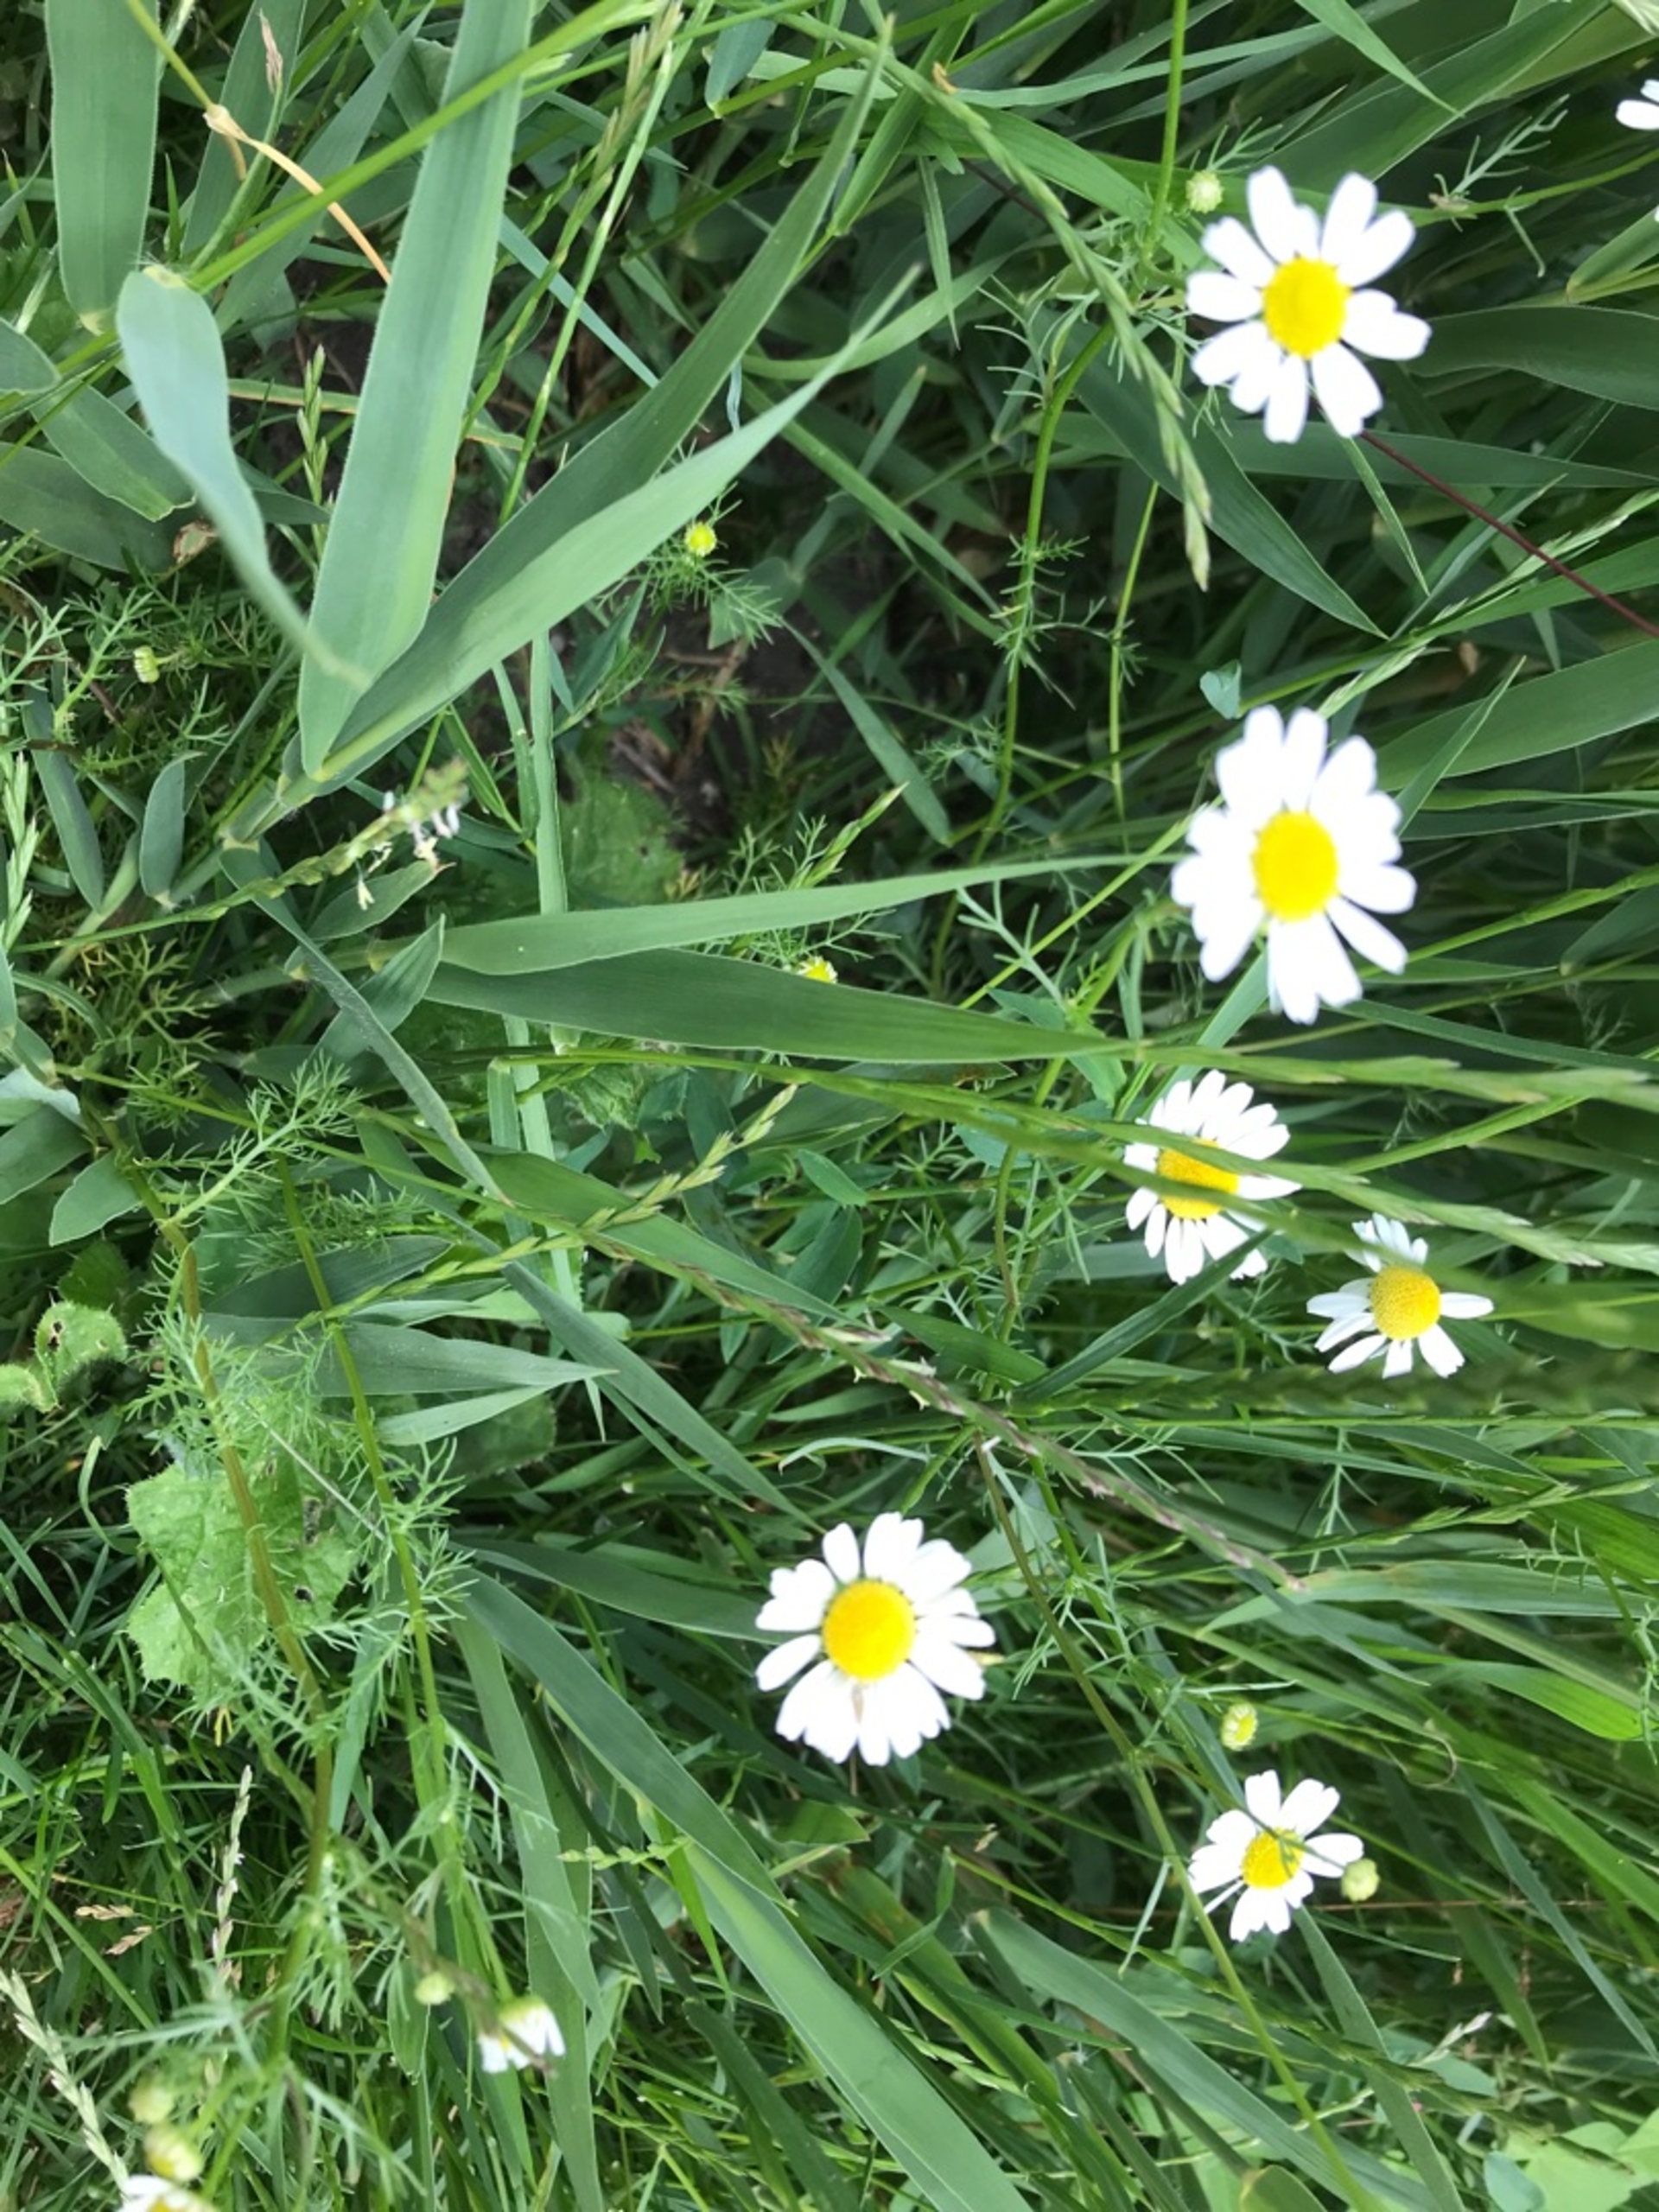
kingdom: Plantae
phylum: Tracheophyta
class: Magnoliopsida
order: Asterales
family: Asteraceae
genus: Tripleurospermum
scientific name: Tripleurospermum inodorum
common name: Lugtløs kamille
